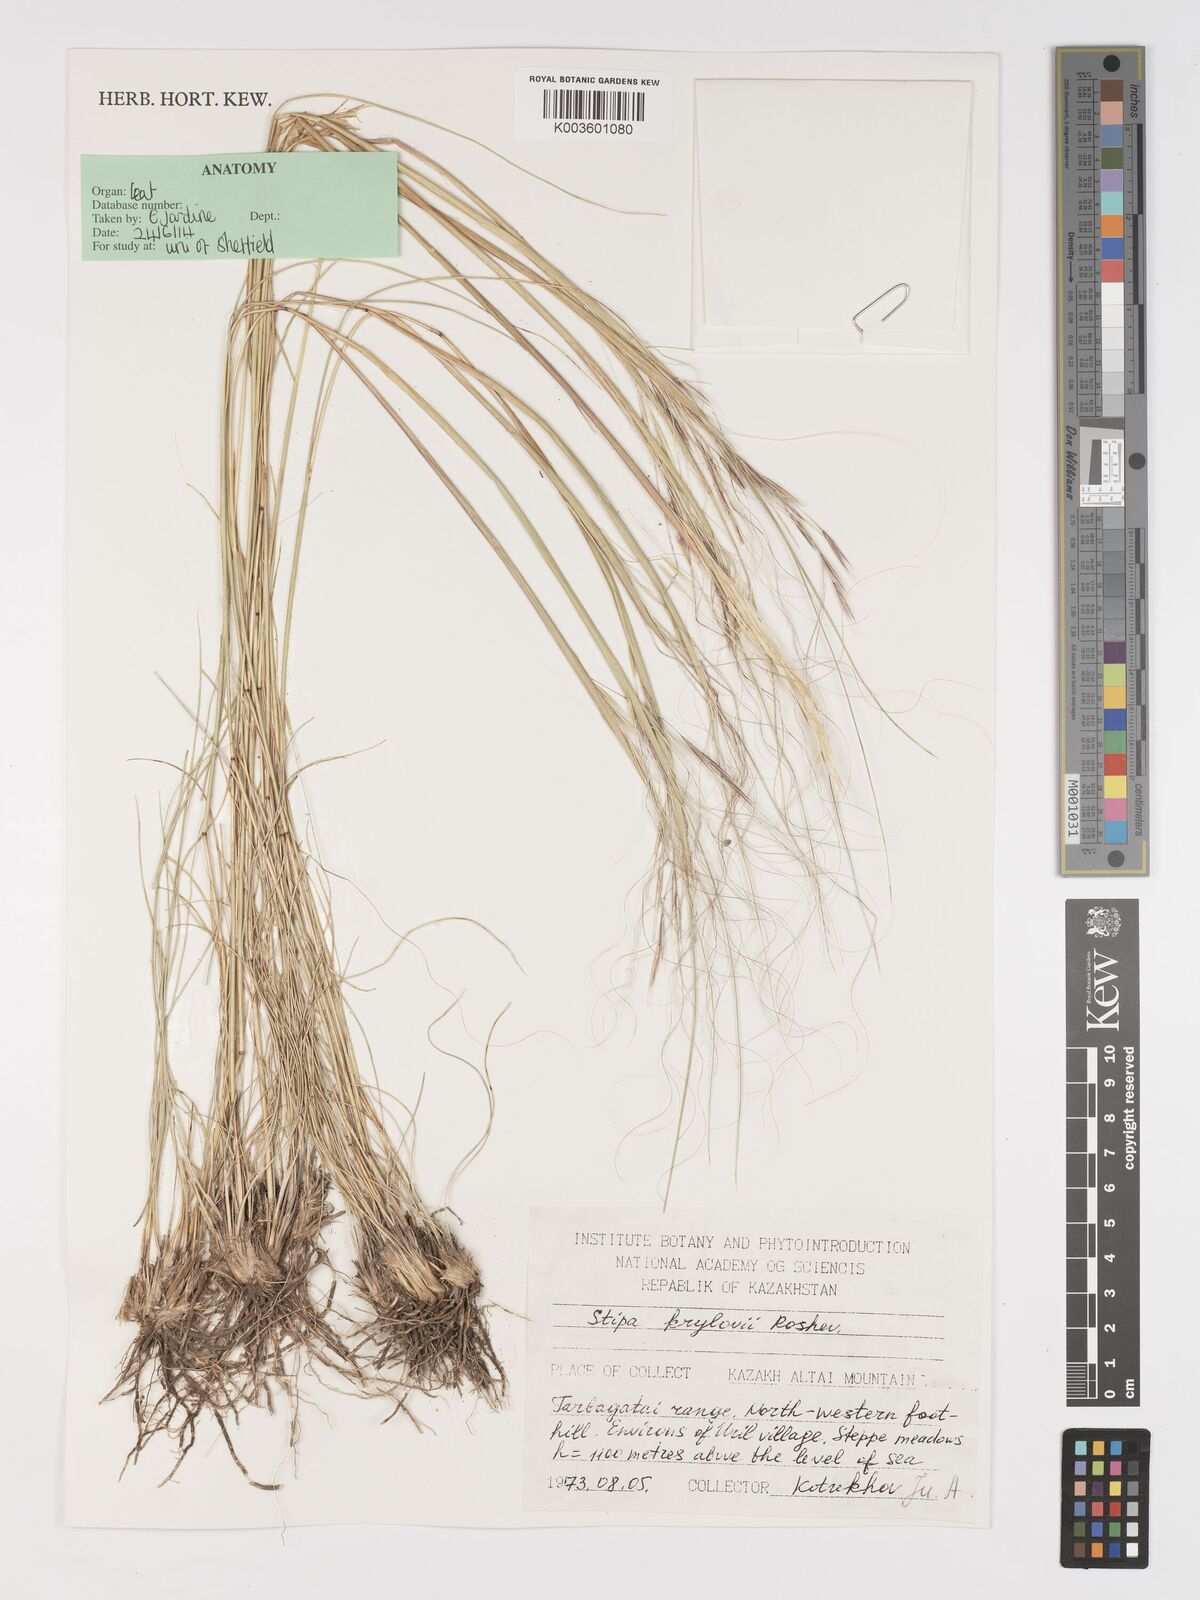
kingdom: Plantae
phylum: Tracheophyta
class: Liliopsida
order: Poales
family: Poaceae
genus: Stipa
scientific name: Stipa krylovii
